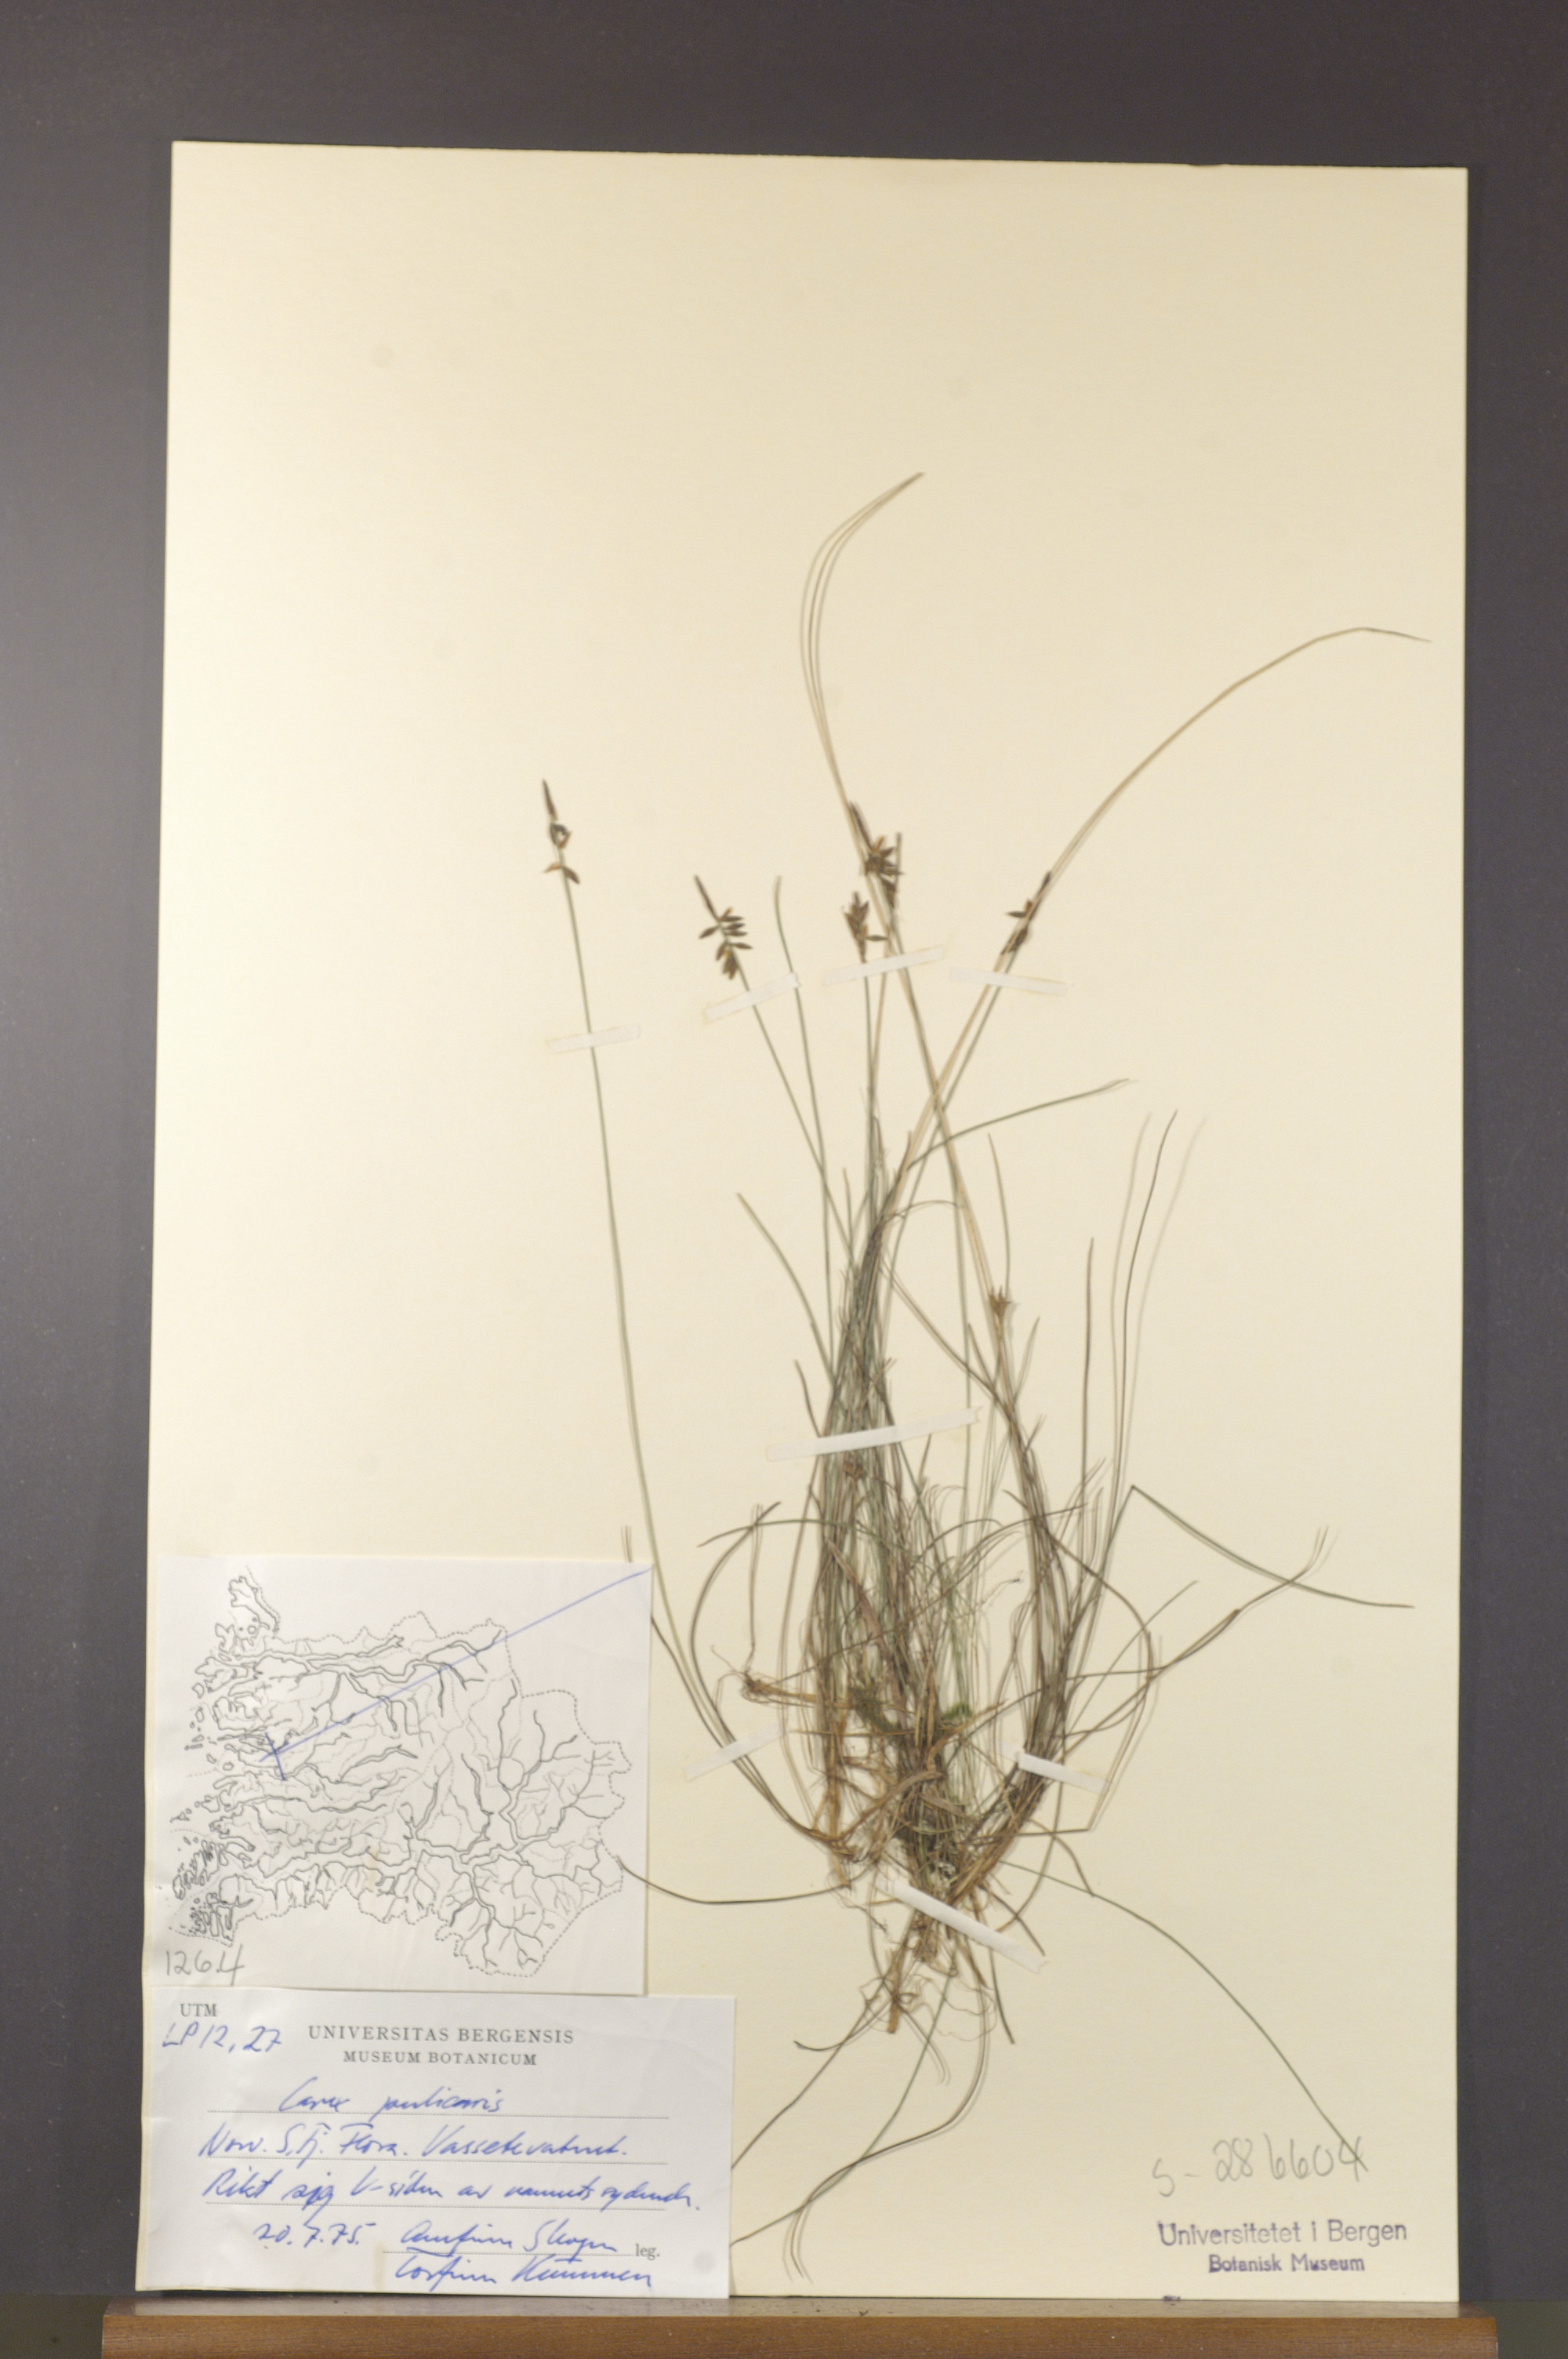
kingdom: Plantae
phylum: Tracheophyta
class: Liliopsida
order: Poales
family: Cyperaceae
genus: Carex
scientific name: Carex pulicaris
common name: Flea sedge
